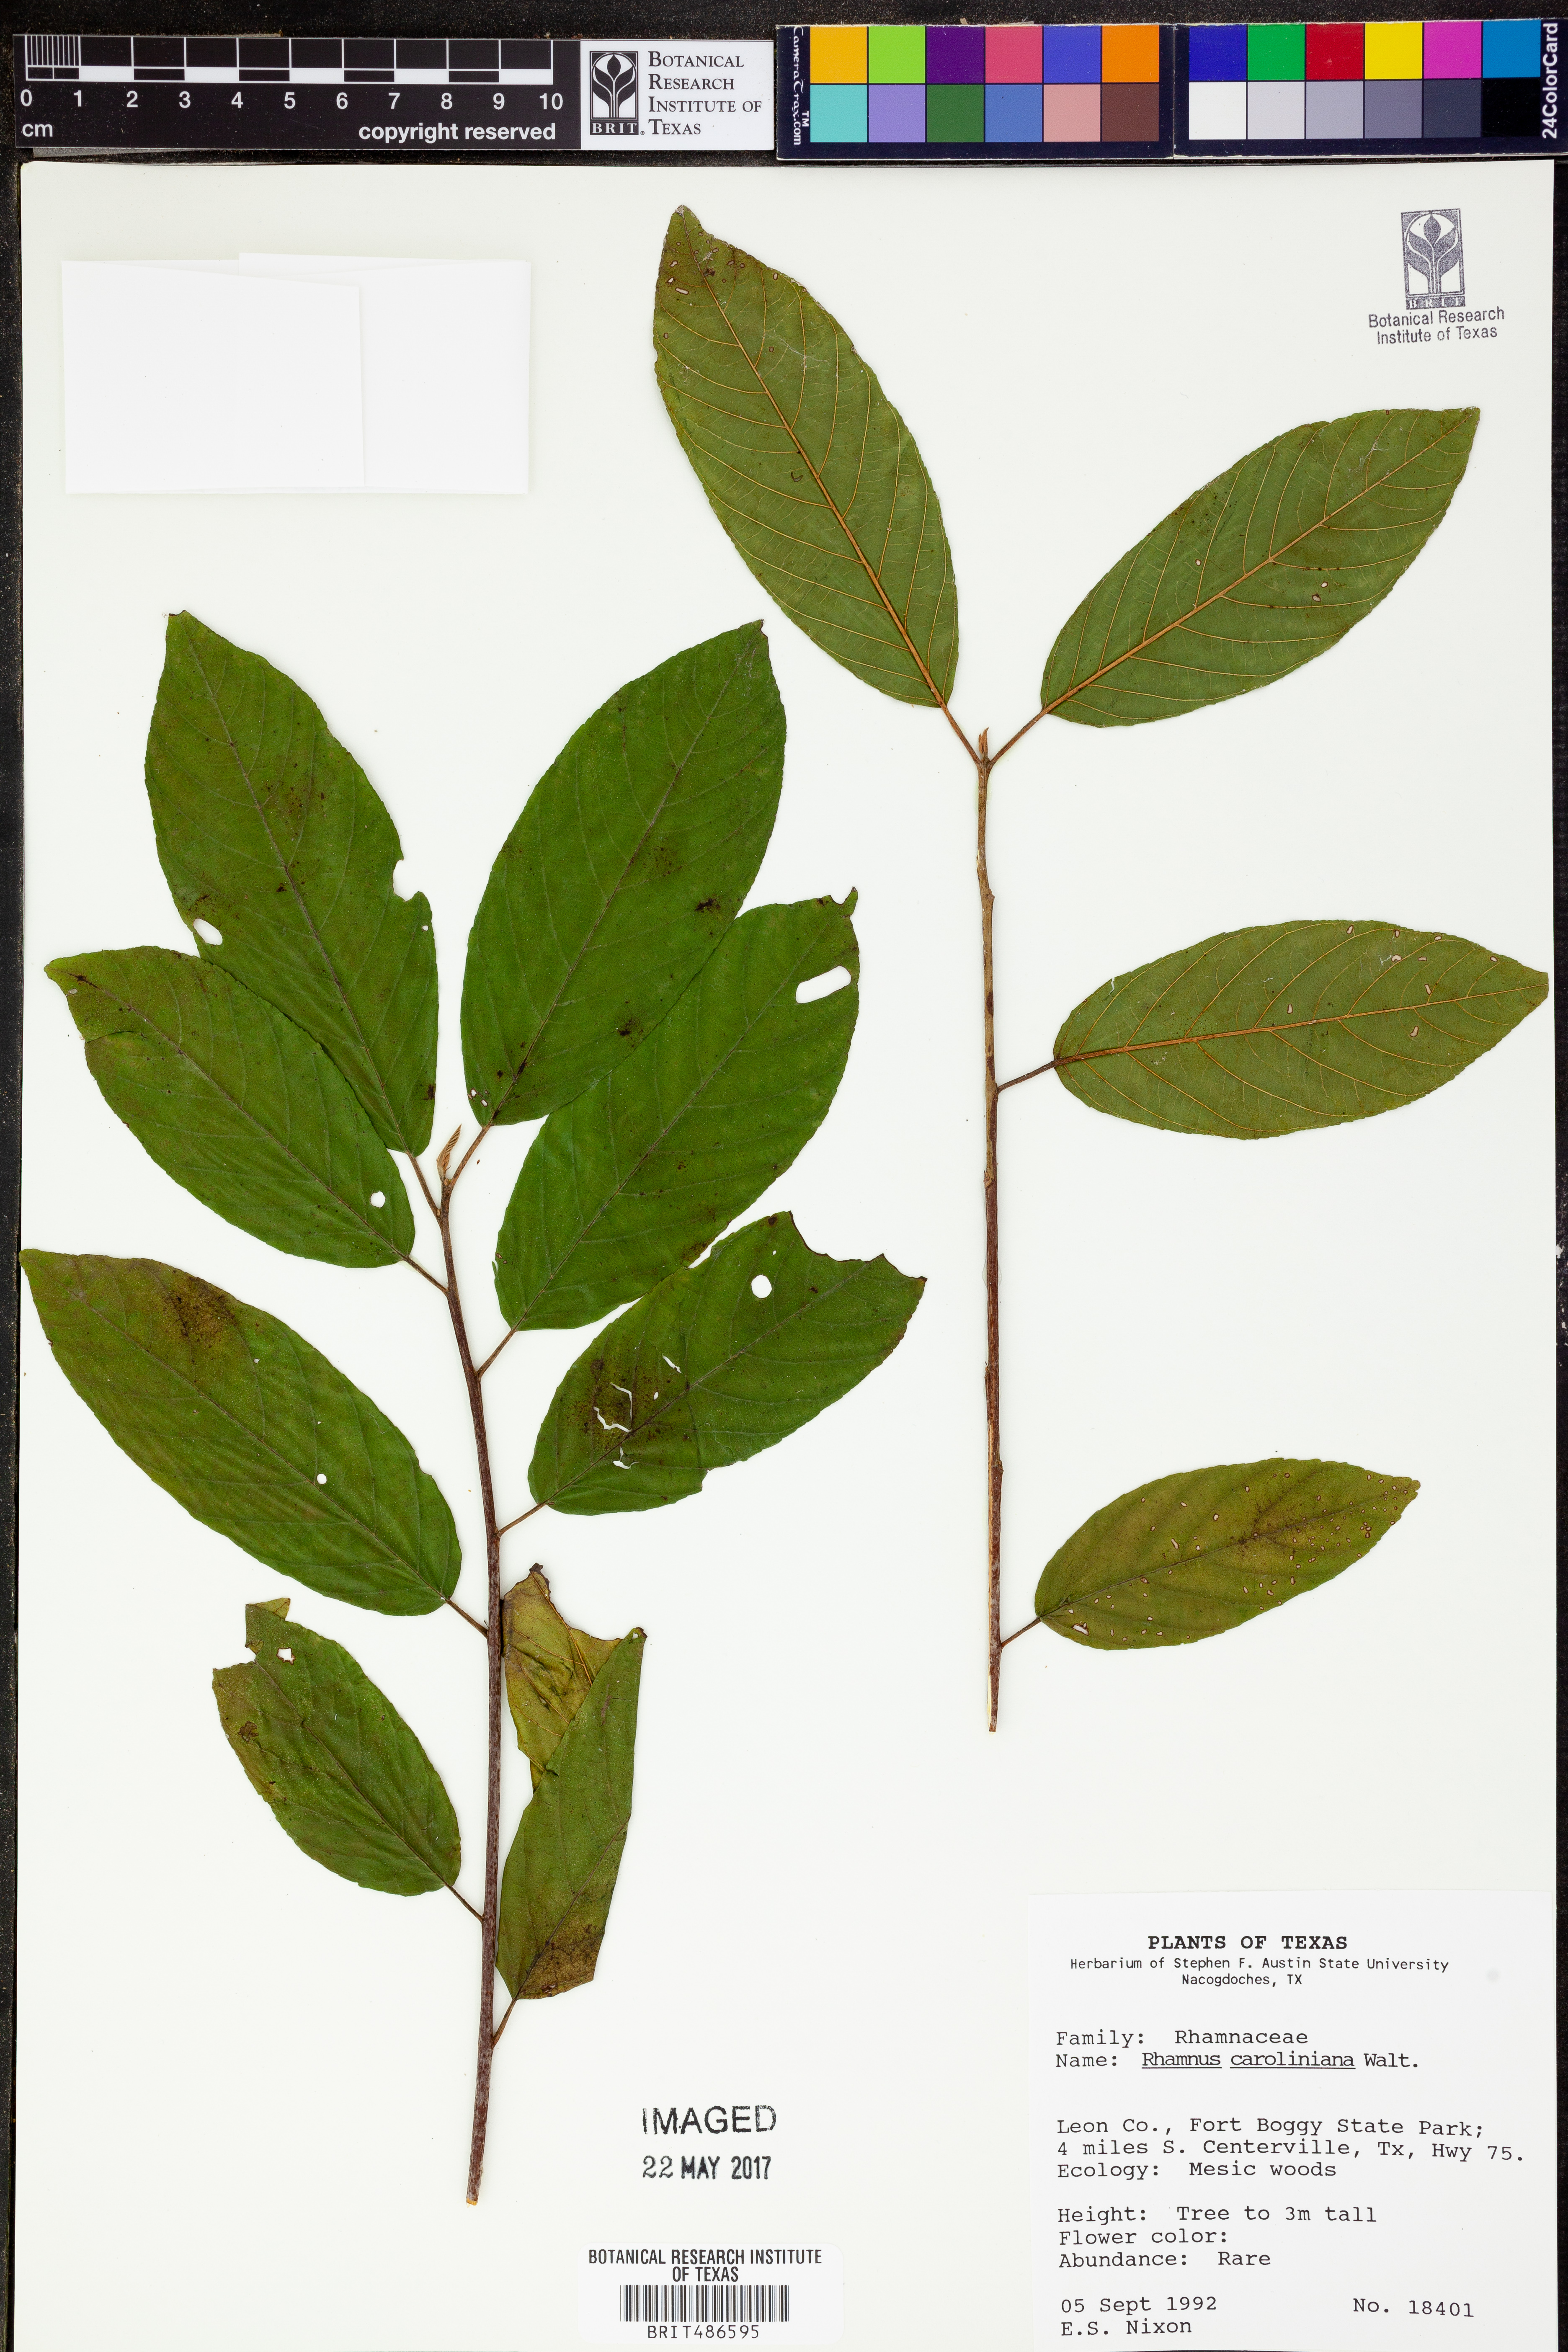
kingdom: Plantae
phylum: Tracheophyta
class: Magnoliopsida
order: Rosales
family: Rhamnaceae
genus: Frangula
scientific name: Frangula caroliniana
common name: Carolina buckthorn
